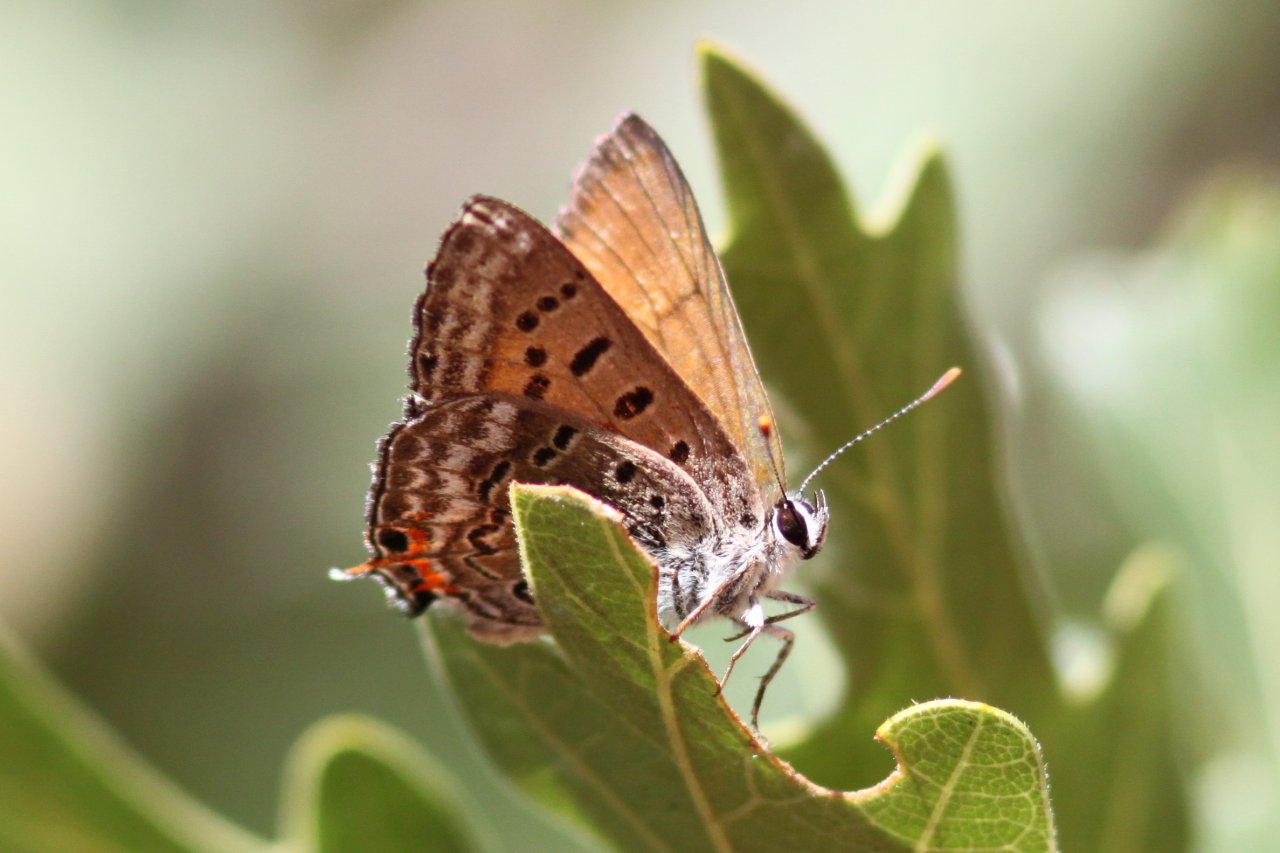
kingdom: Animalia
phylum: Arthropoda
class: Insecta
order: Lepidoptera
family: Sesiidae
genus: Sesia
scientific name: Sesia Lycaena arota
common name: Tailed Copper
